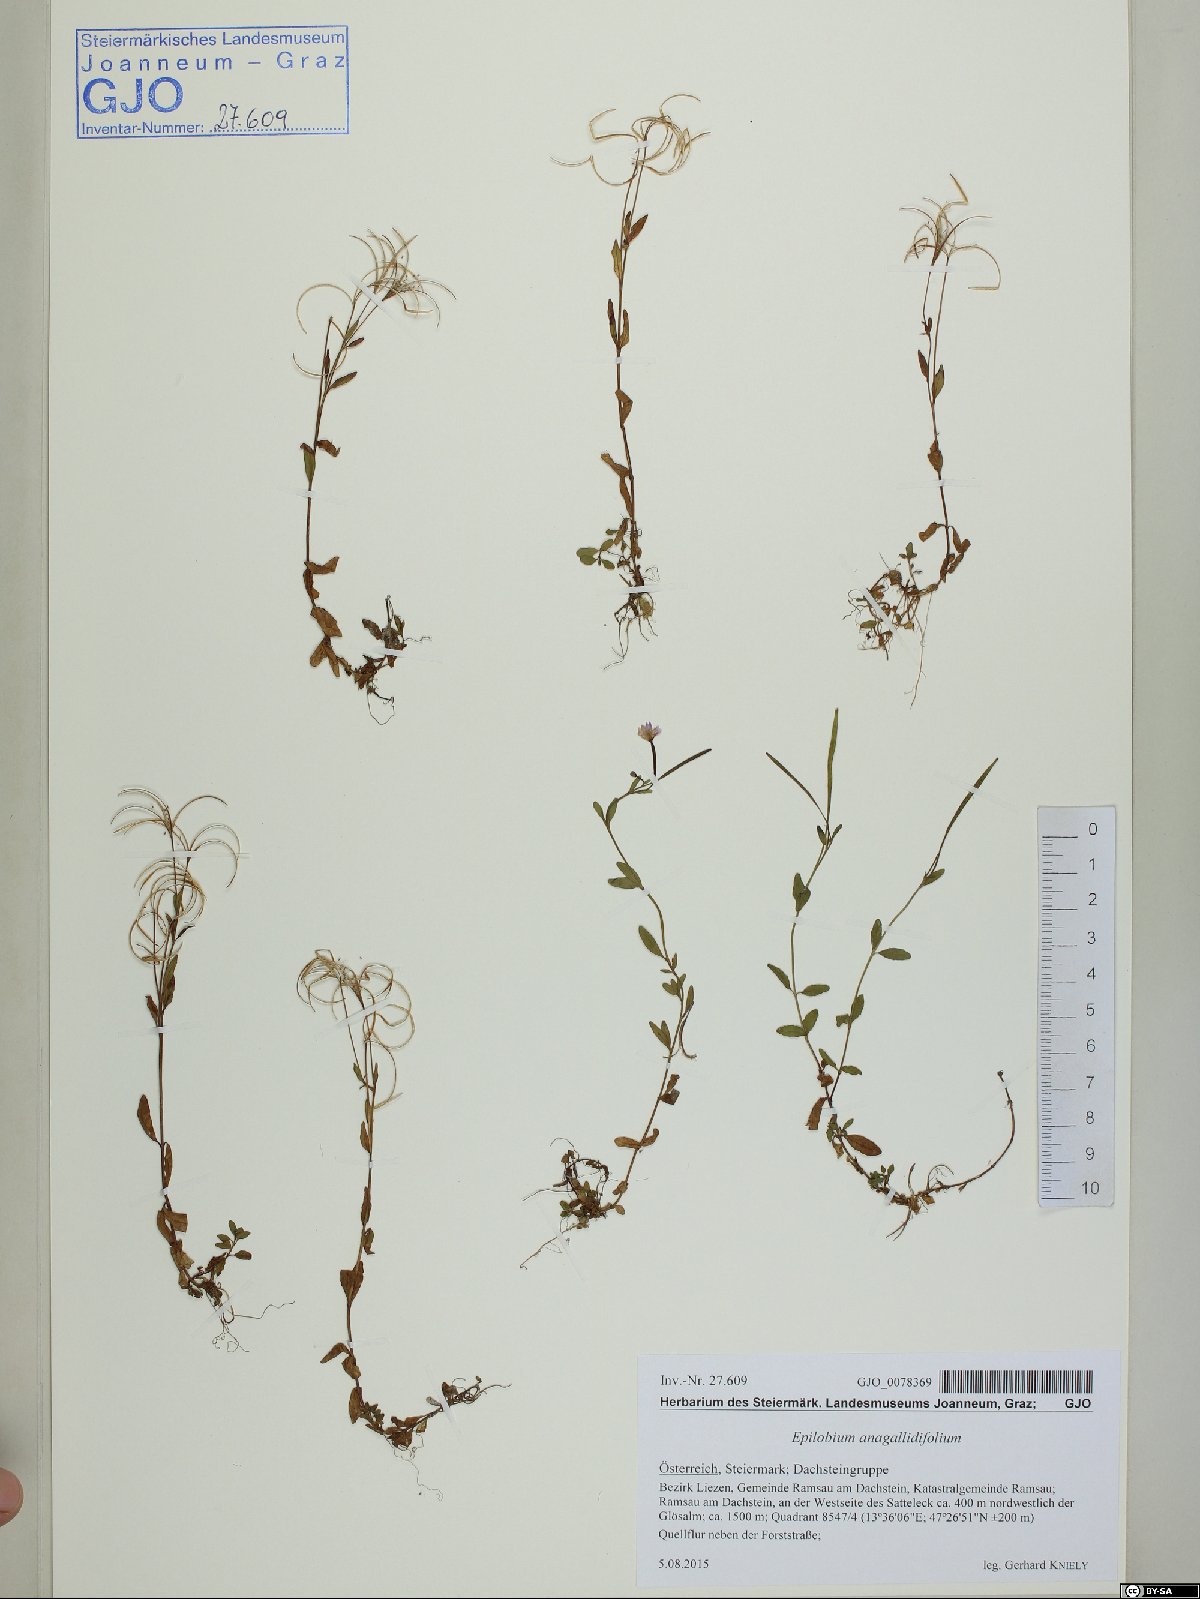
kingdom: Plantae
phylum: Tracheophyta
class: Magnoliopsida
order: Myrtales
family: Onagraceae
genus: Epilobium
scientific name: Epilobium anagallidifolium
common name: Alpine willowherb
